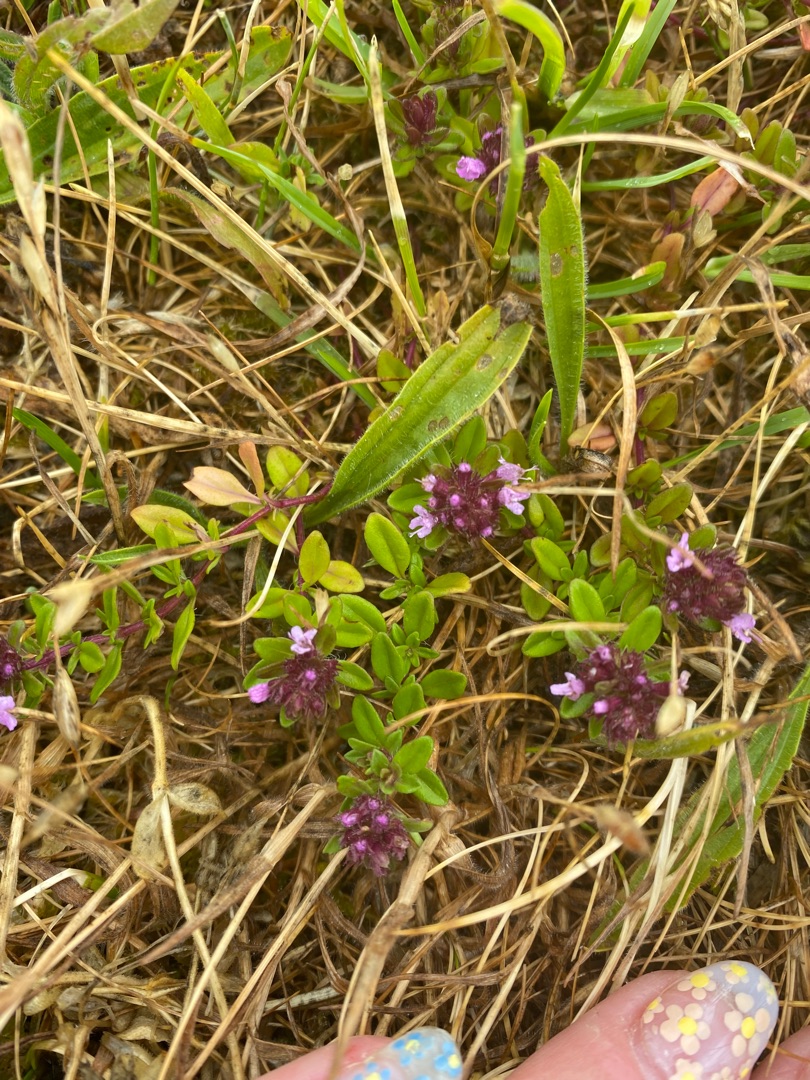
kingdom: Plantae
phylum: Tracheophyta
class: Magnoliopsida
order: Lamiales
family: Lamiaceae
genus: Thymus
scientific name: Thymus pulegioides
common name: Bredbladet timian
